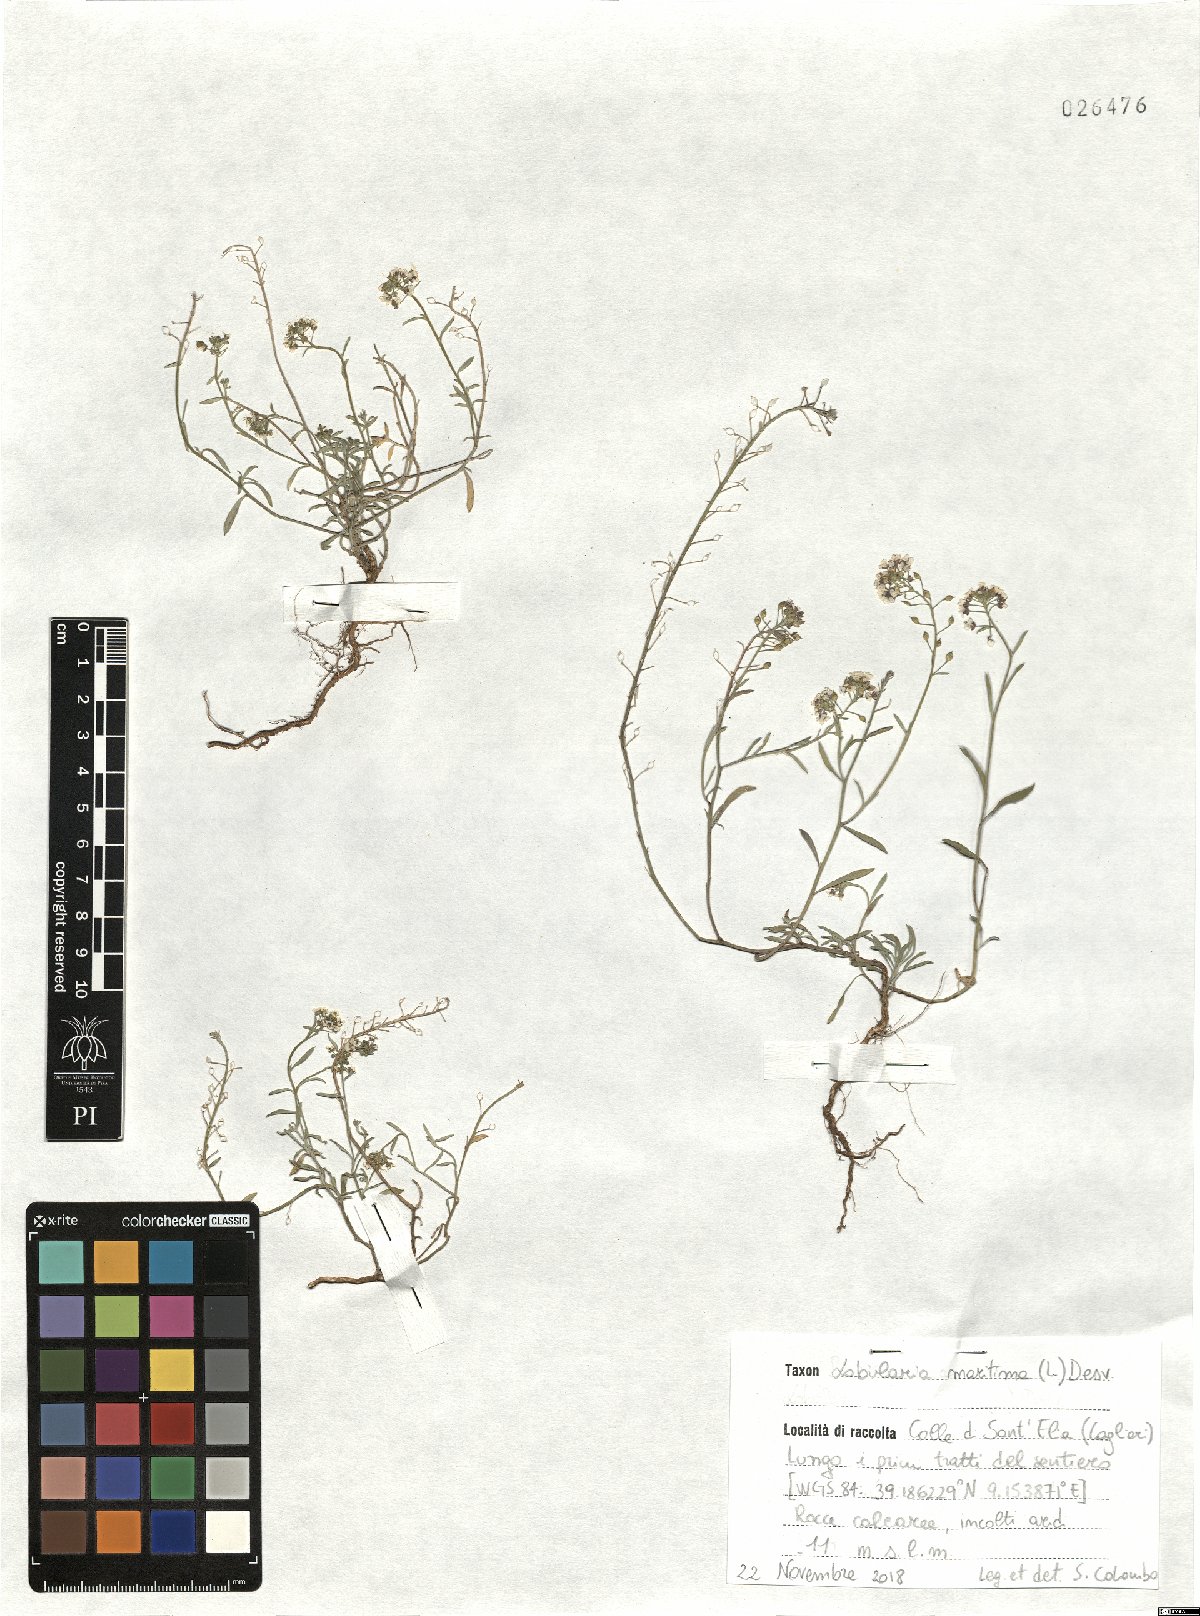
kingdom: Plantae
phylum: Tracheophyta
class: Magnoliopsida
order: Brassicales
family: Brassicaceae
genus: Lobularia
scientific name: Lobularia maritima
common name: Sweet alison
